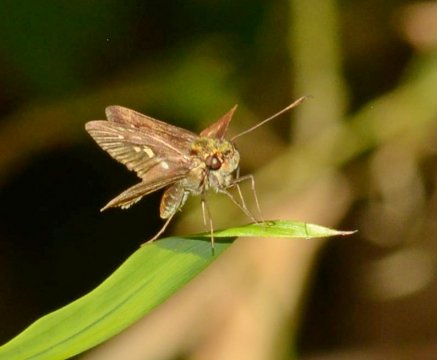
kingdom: Animalia
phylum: Arthropoda
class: Insecta
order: Lepidoptera
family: Hesperiidae
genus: Vernia
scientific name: Vernia verna
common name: Little Glassywing
